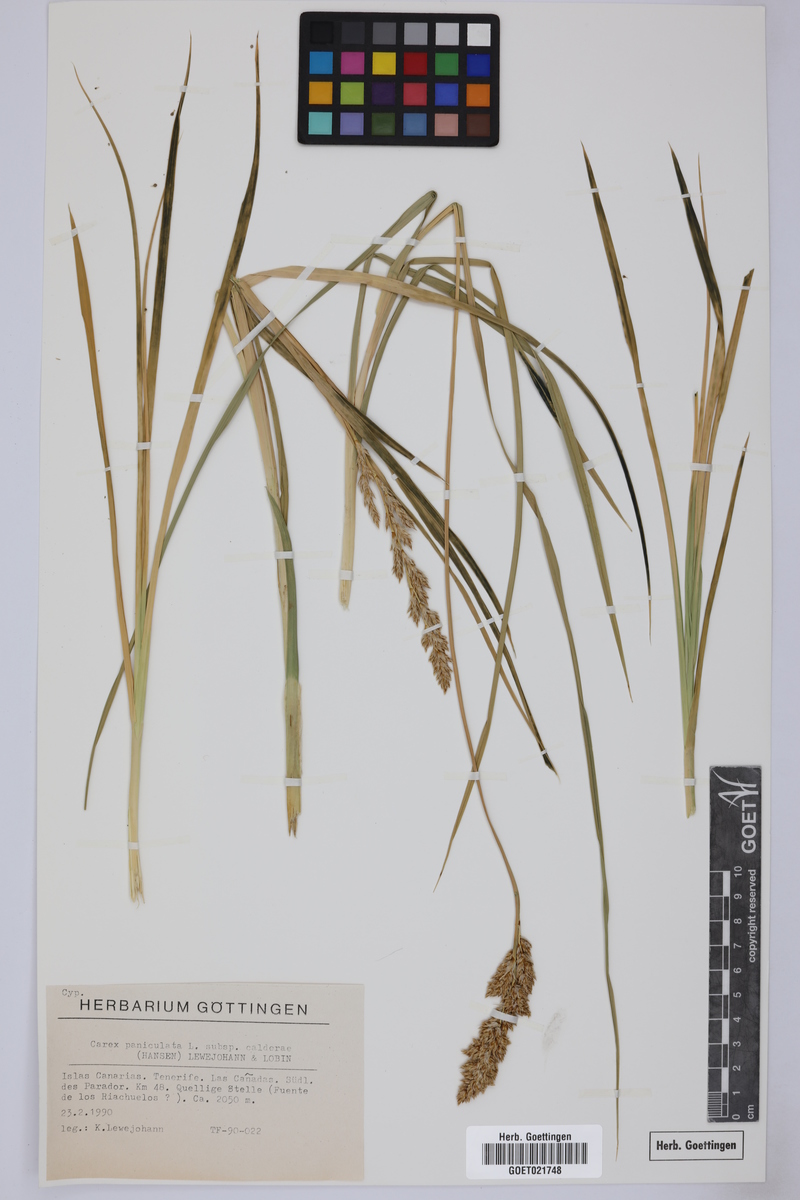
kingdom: Plantae
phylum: Tracheophyta
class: Liliopsida
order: Poales
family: Cyperaceae
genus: Carex
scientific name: Carex paniculata
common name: Greater tussock-sedge
